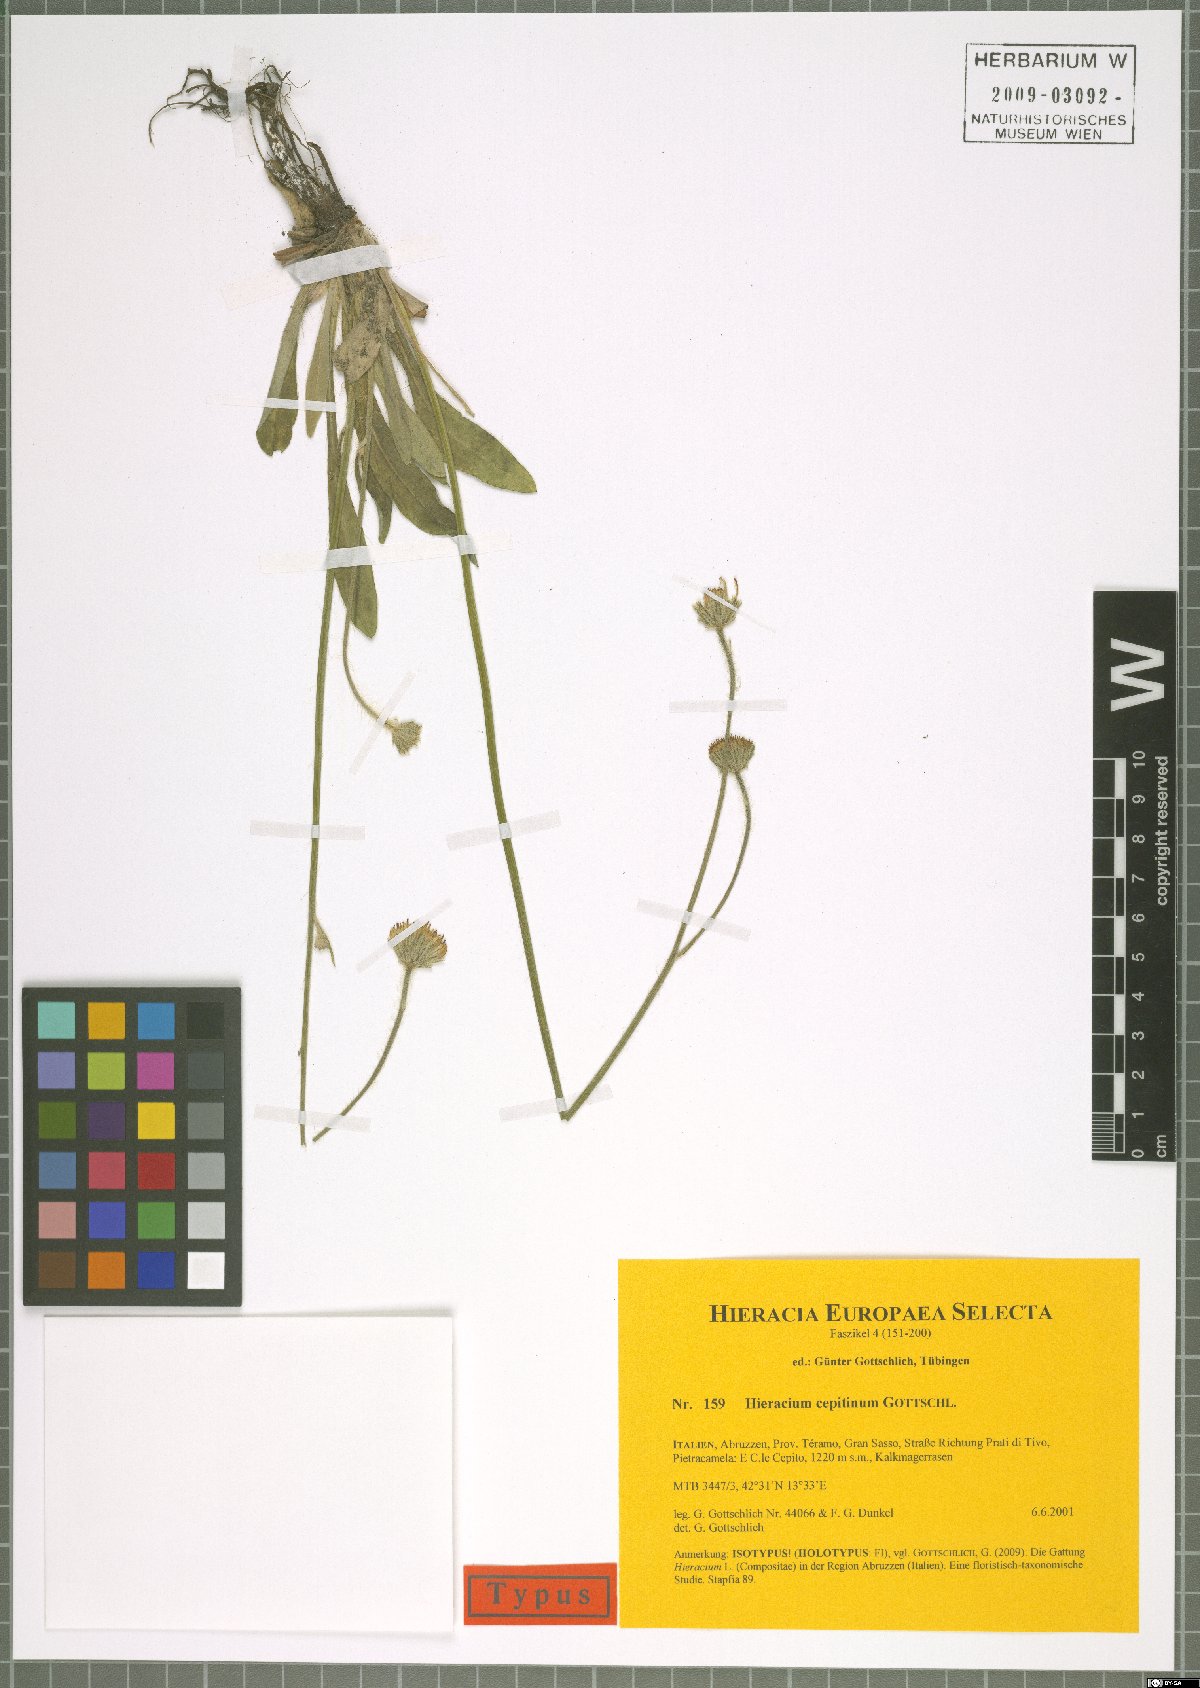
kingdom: Plantae
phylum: Tracheophyta
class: Magnoliopsida
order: Asterales
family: Asteraceae
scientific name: Asteraceae
